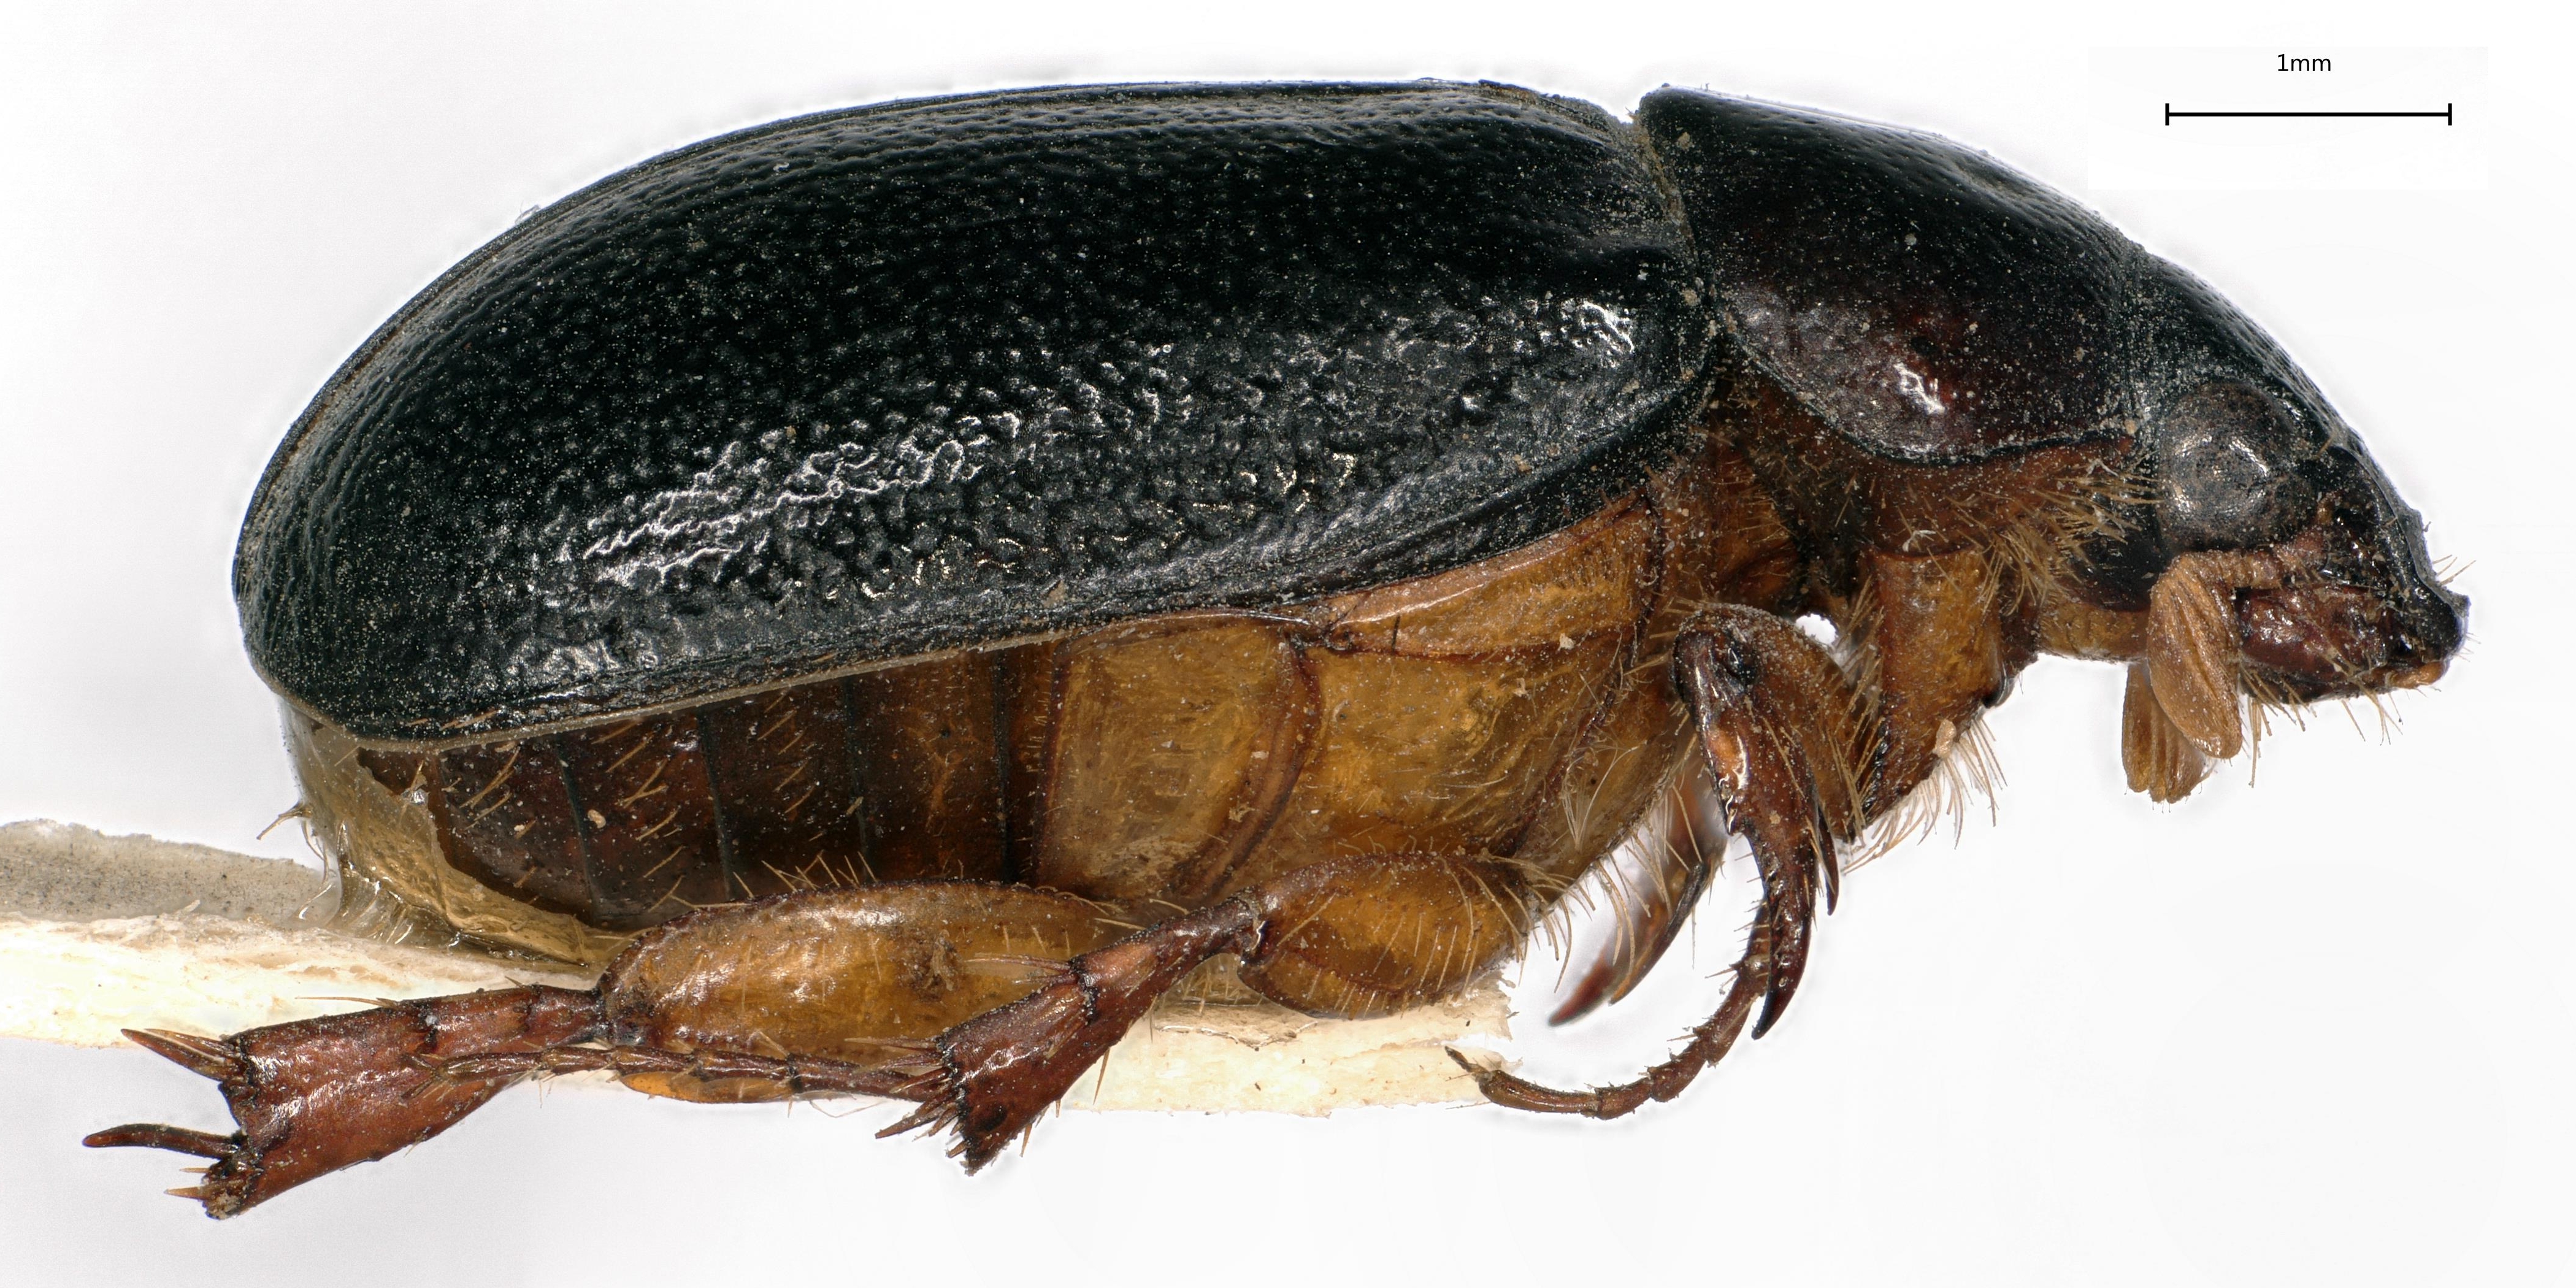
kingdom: Animalia
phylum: Arthropoda
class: Insecta
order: Coleoptera
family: Scarabaeidae
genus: Hybocamenta
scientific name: Hybocamenta ferranti
